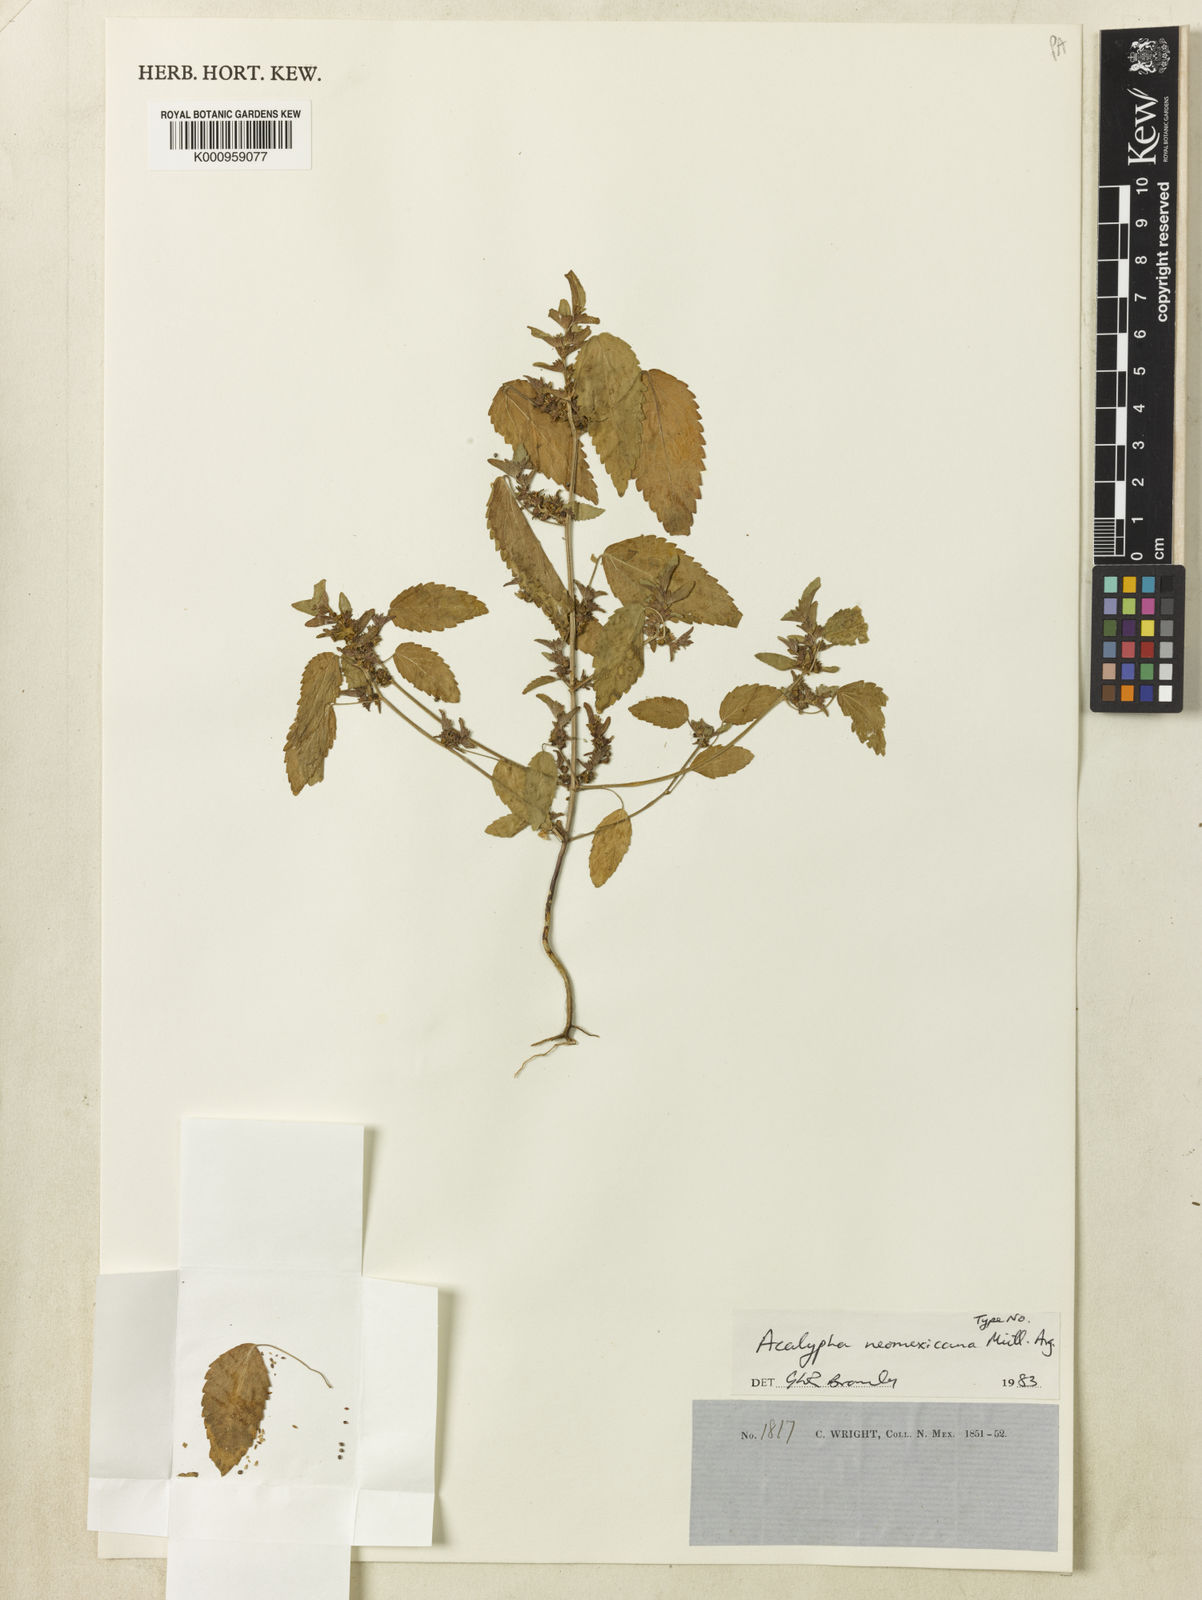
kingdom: Plantae
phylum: Tracheophyta
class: Magnoliopsida
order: Malpighiales
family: Euphorbiaceae
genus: Acalypha
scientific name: Acalypha
